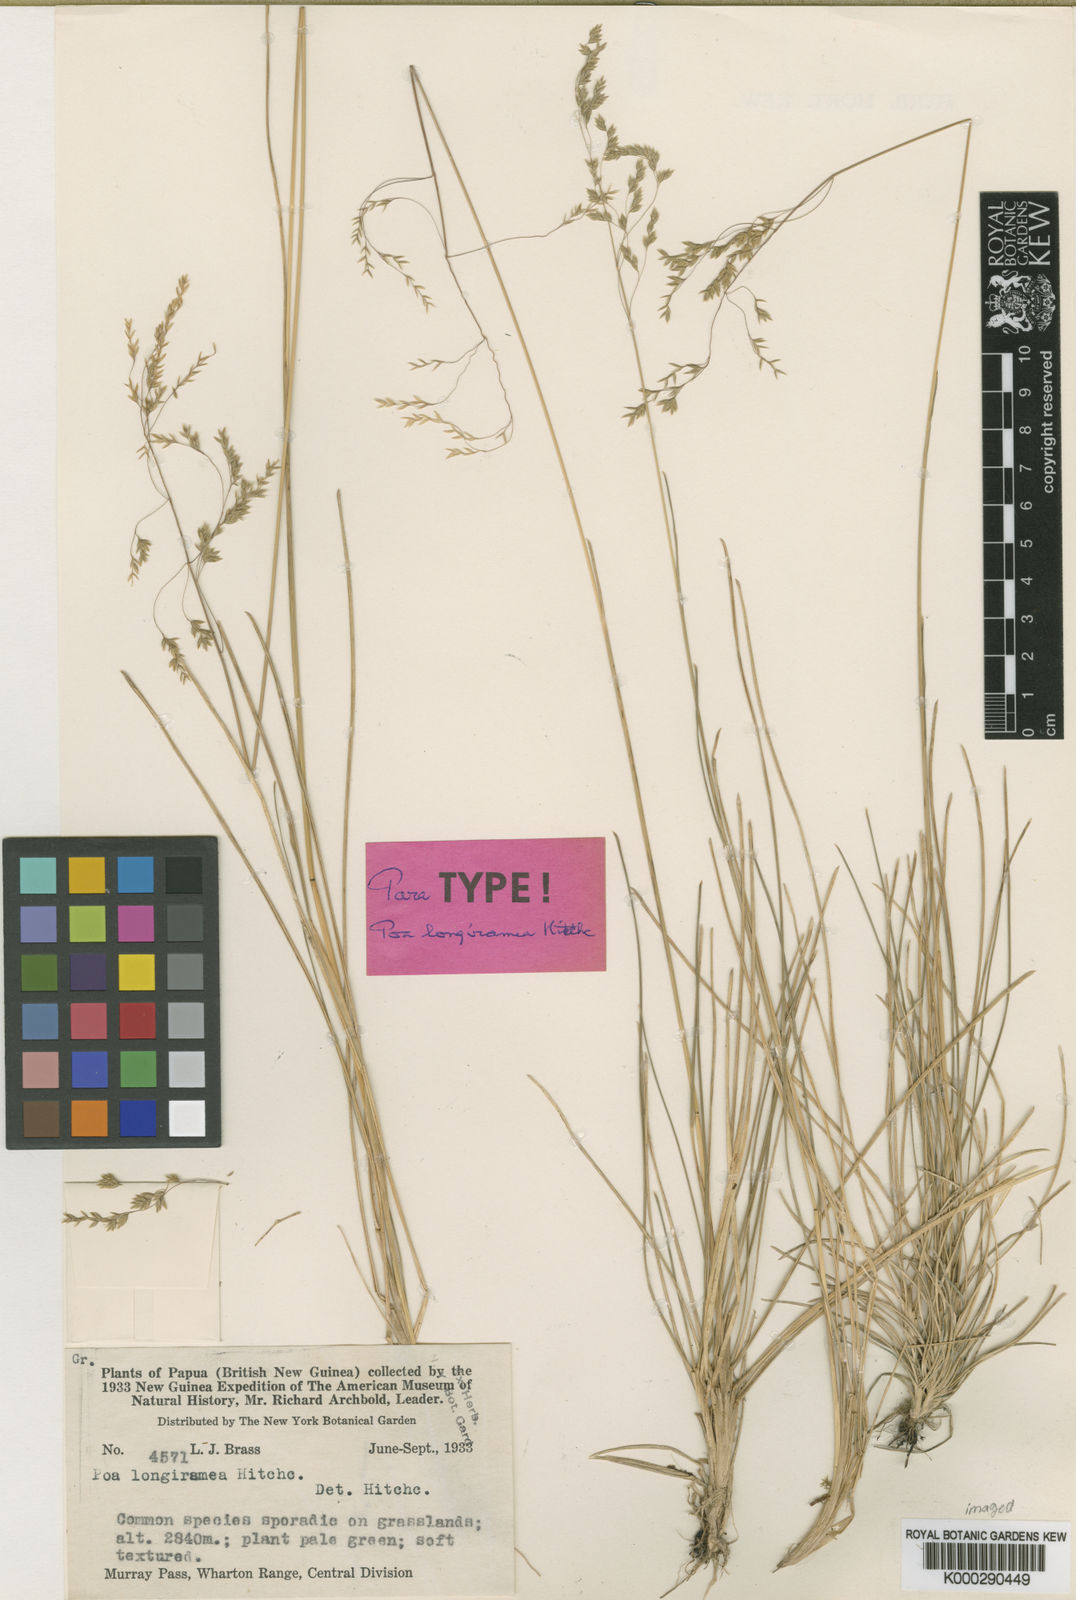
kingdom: Plantae
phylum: Tracheophyta
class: Liliopsida
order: Poales
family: Poaceae
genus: Poa
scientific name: Poa longiramea
